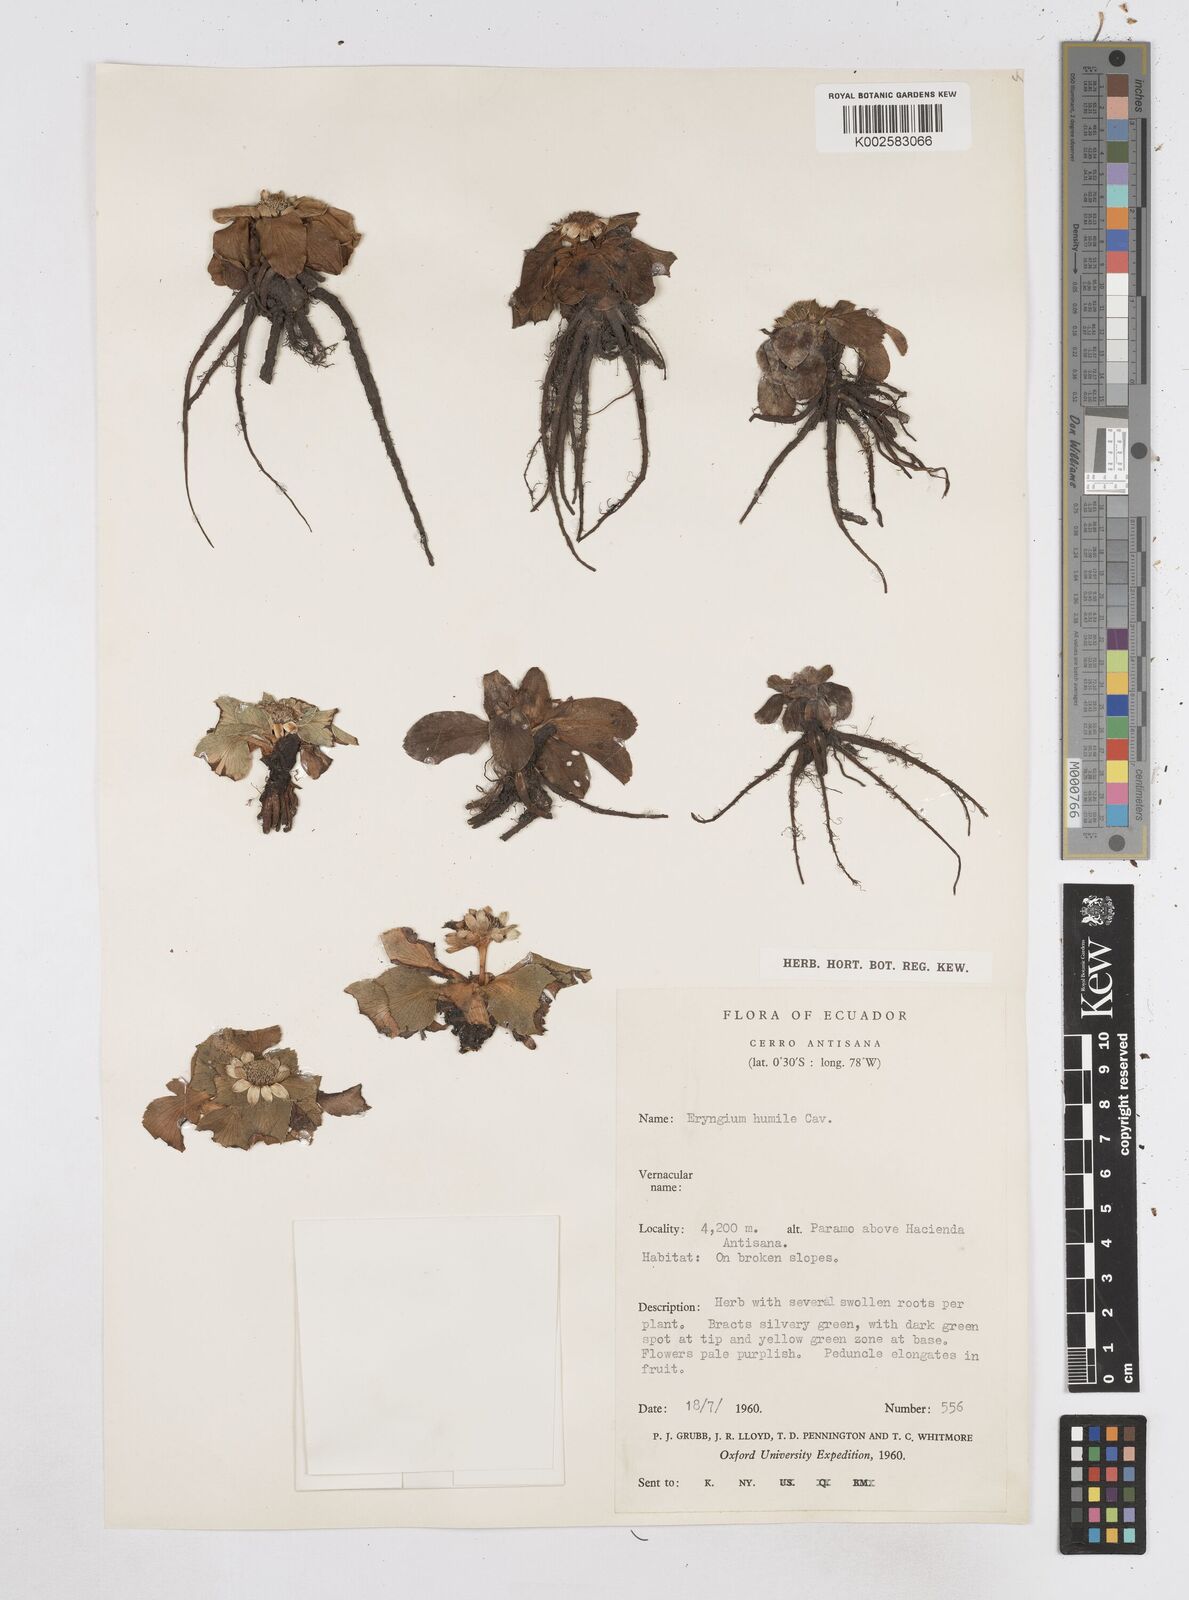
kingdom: Plantae
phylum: Tracheophyta
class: Magnoliopsida
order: Apiales
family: Apiaceae
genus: Eryngium
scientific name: Eryngium humile
